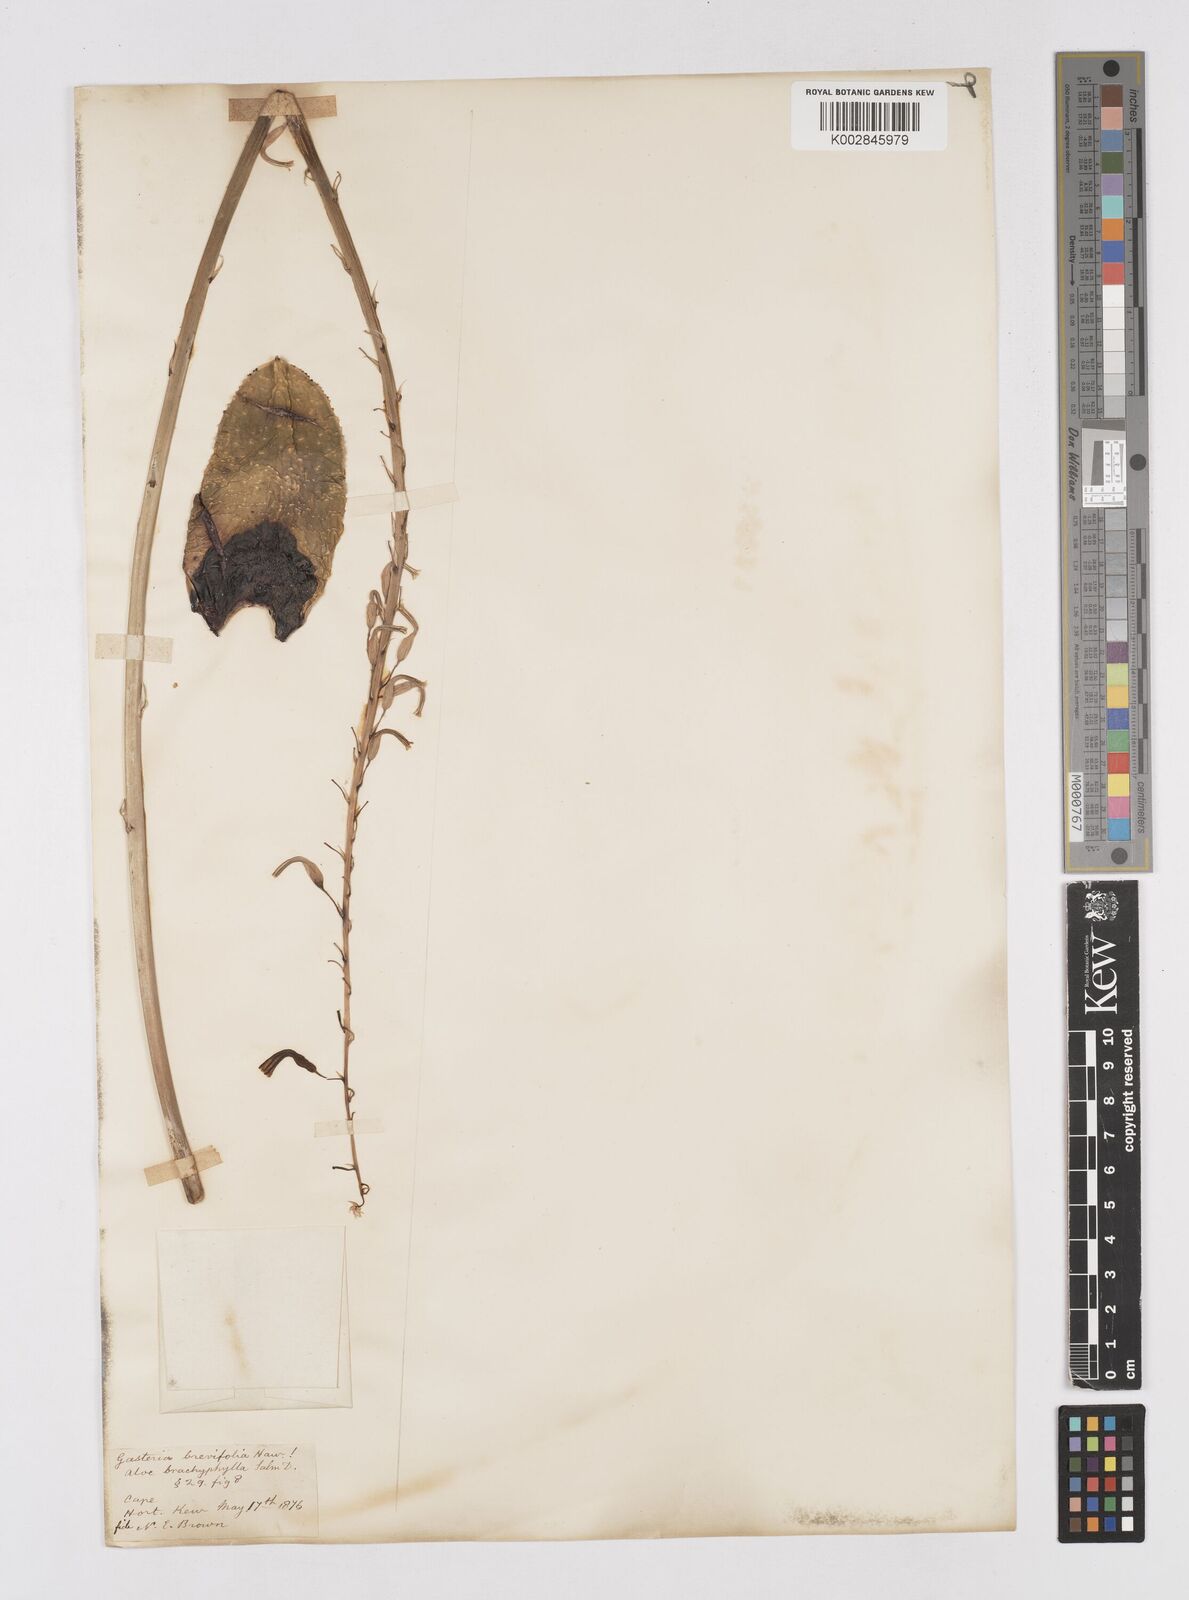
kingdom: Plantae
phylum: Tracheophyta
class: Liliopsida
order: Asparagales
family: Asphodelaceae
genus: Gasteria
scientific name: Gasteria brevifolia
